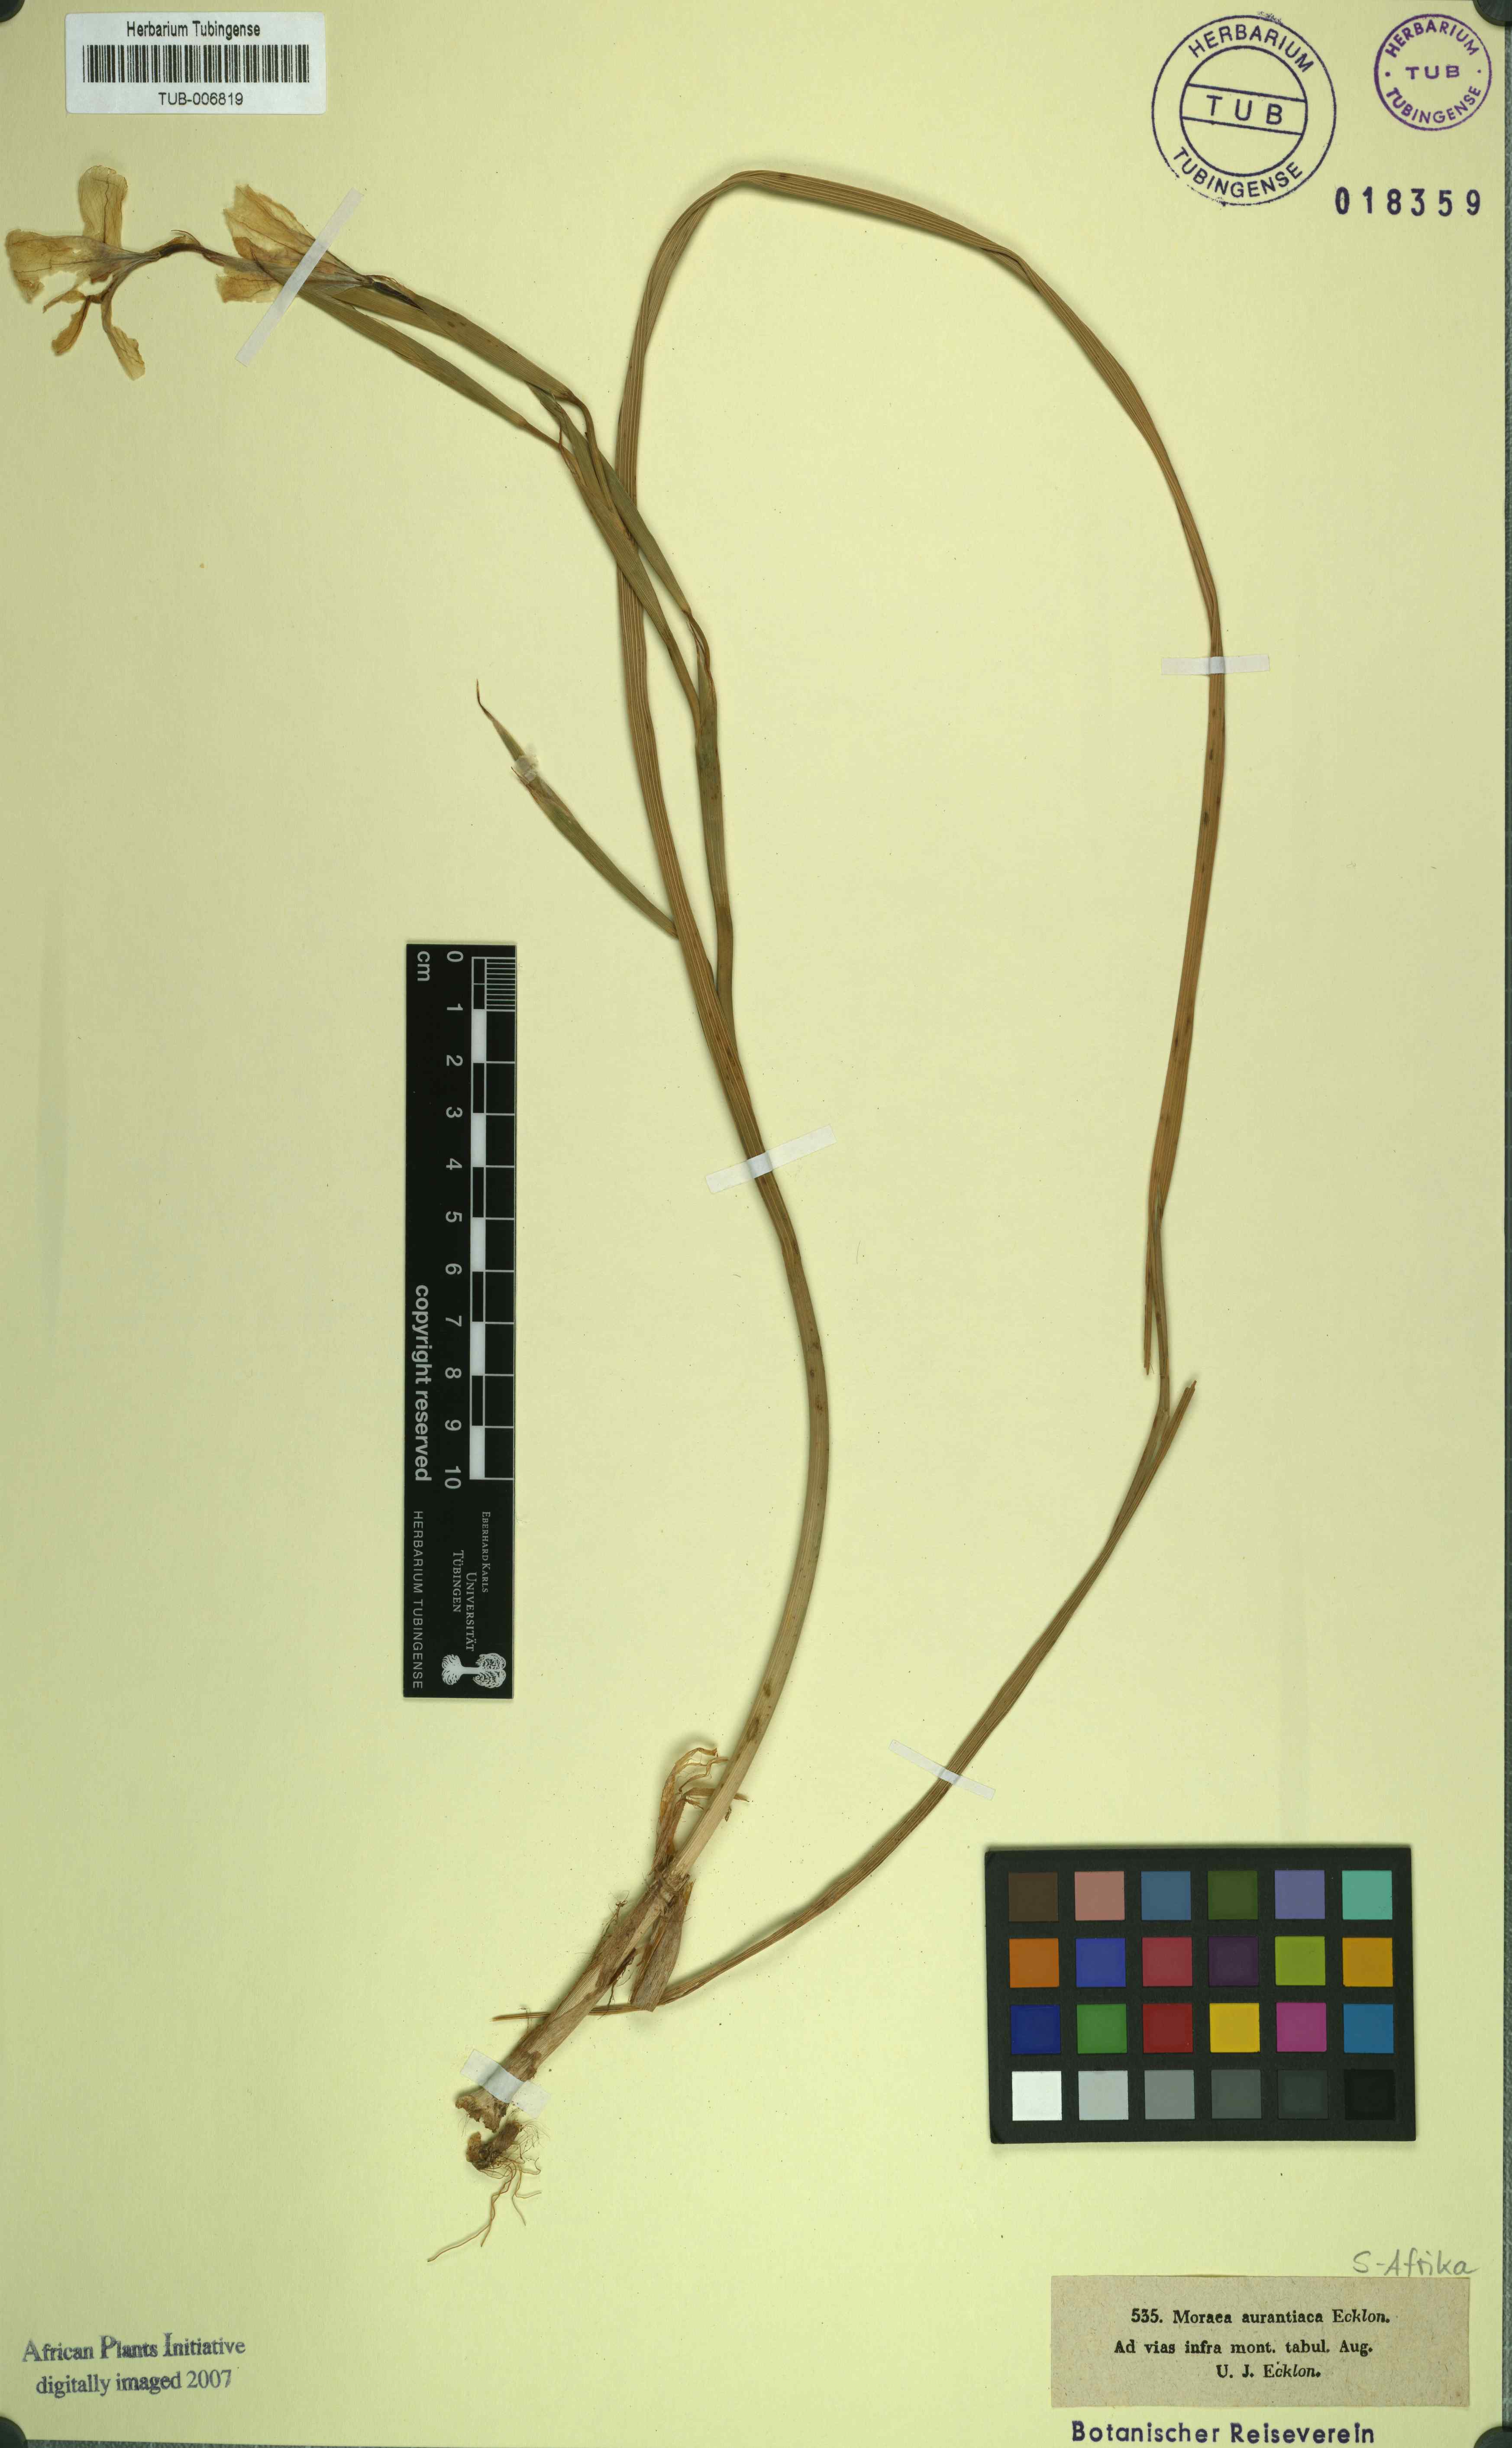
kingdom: Plantae
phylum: Tracheophyta
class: Liliopsida
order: Asparagales
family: Iridaceae
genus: Moraea
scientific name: Moraea aurantiaca
